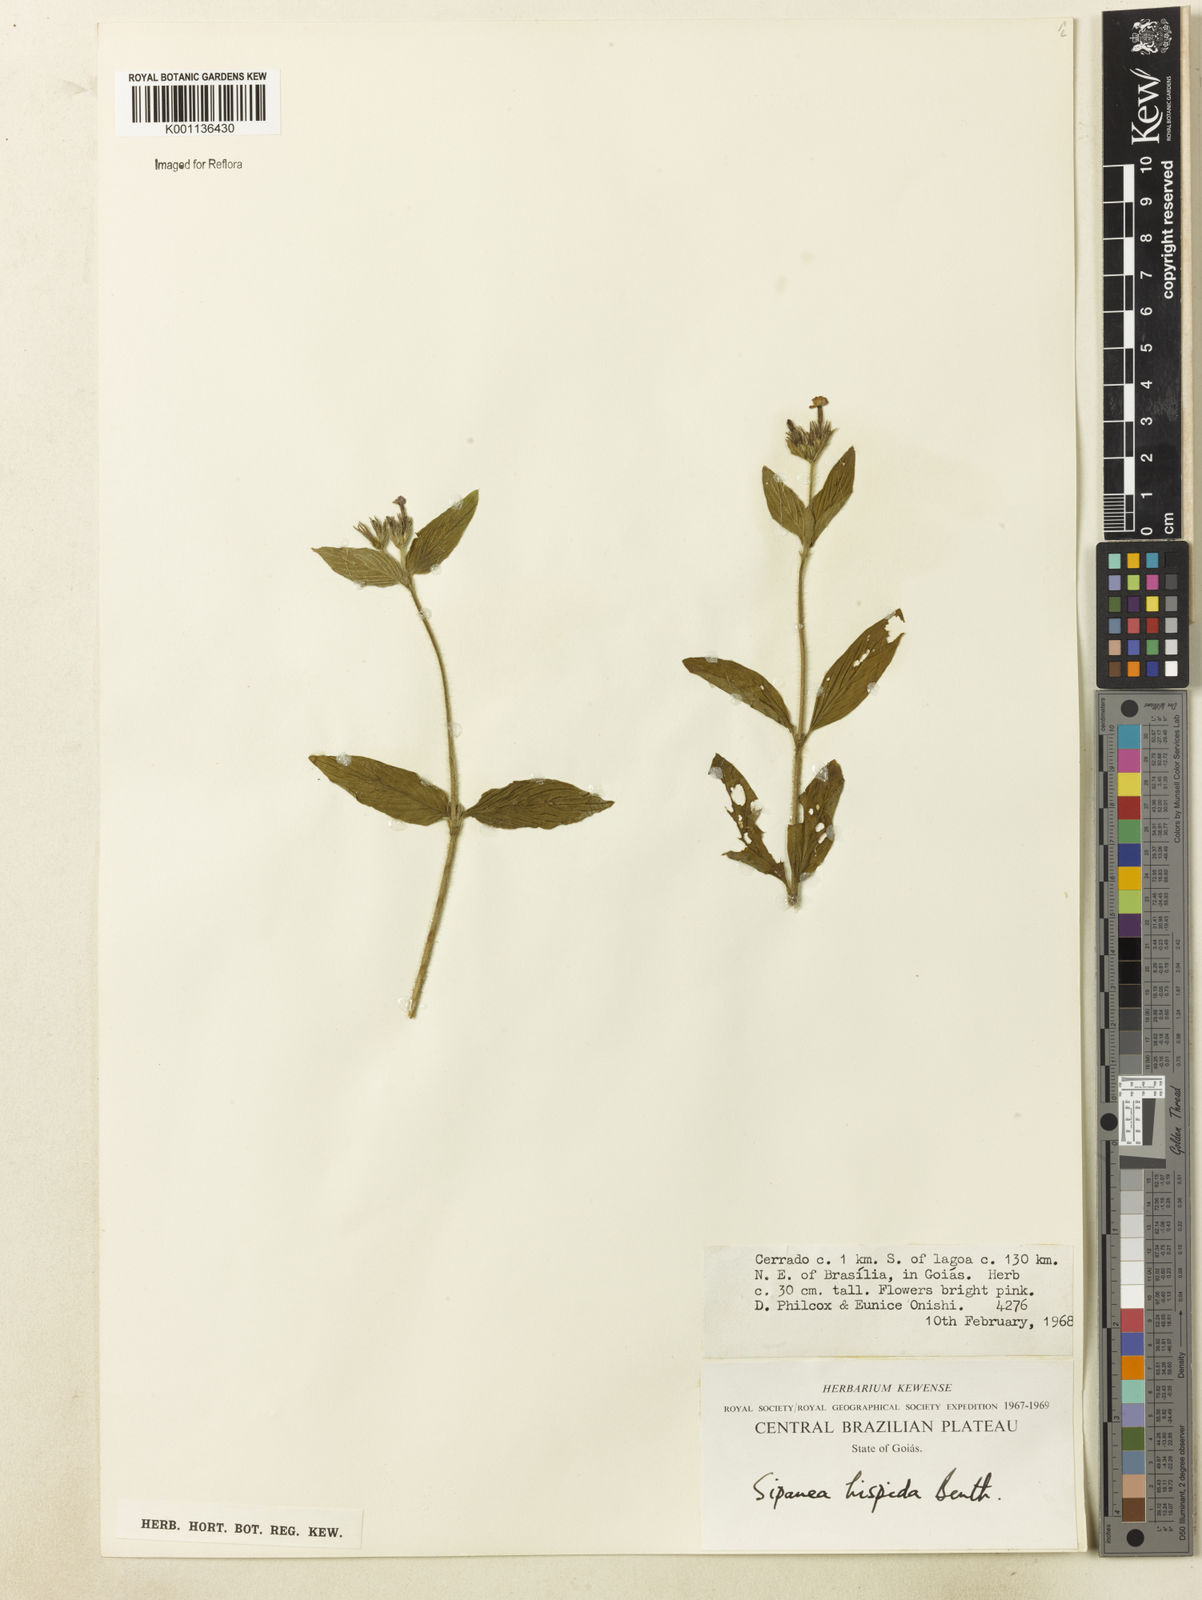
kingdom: Plantae
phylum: Tracheophyta
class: Magnoliopsida
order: Gentianales
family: Rubiaceae
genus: Sipanea
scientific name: Sipanea hispida
